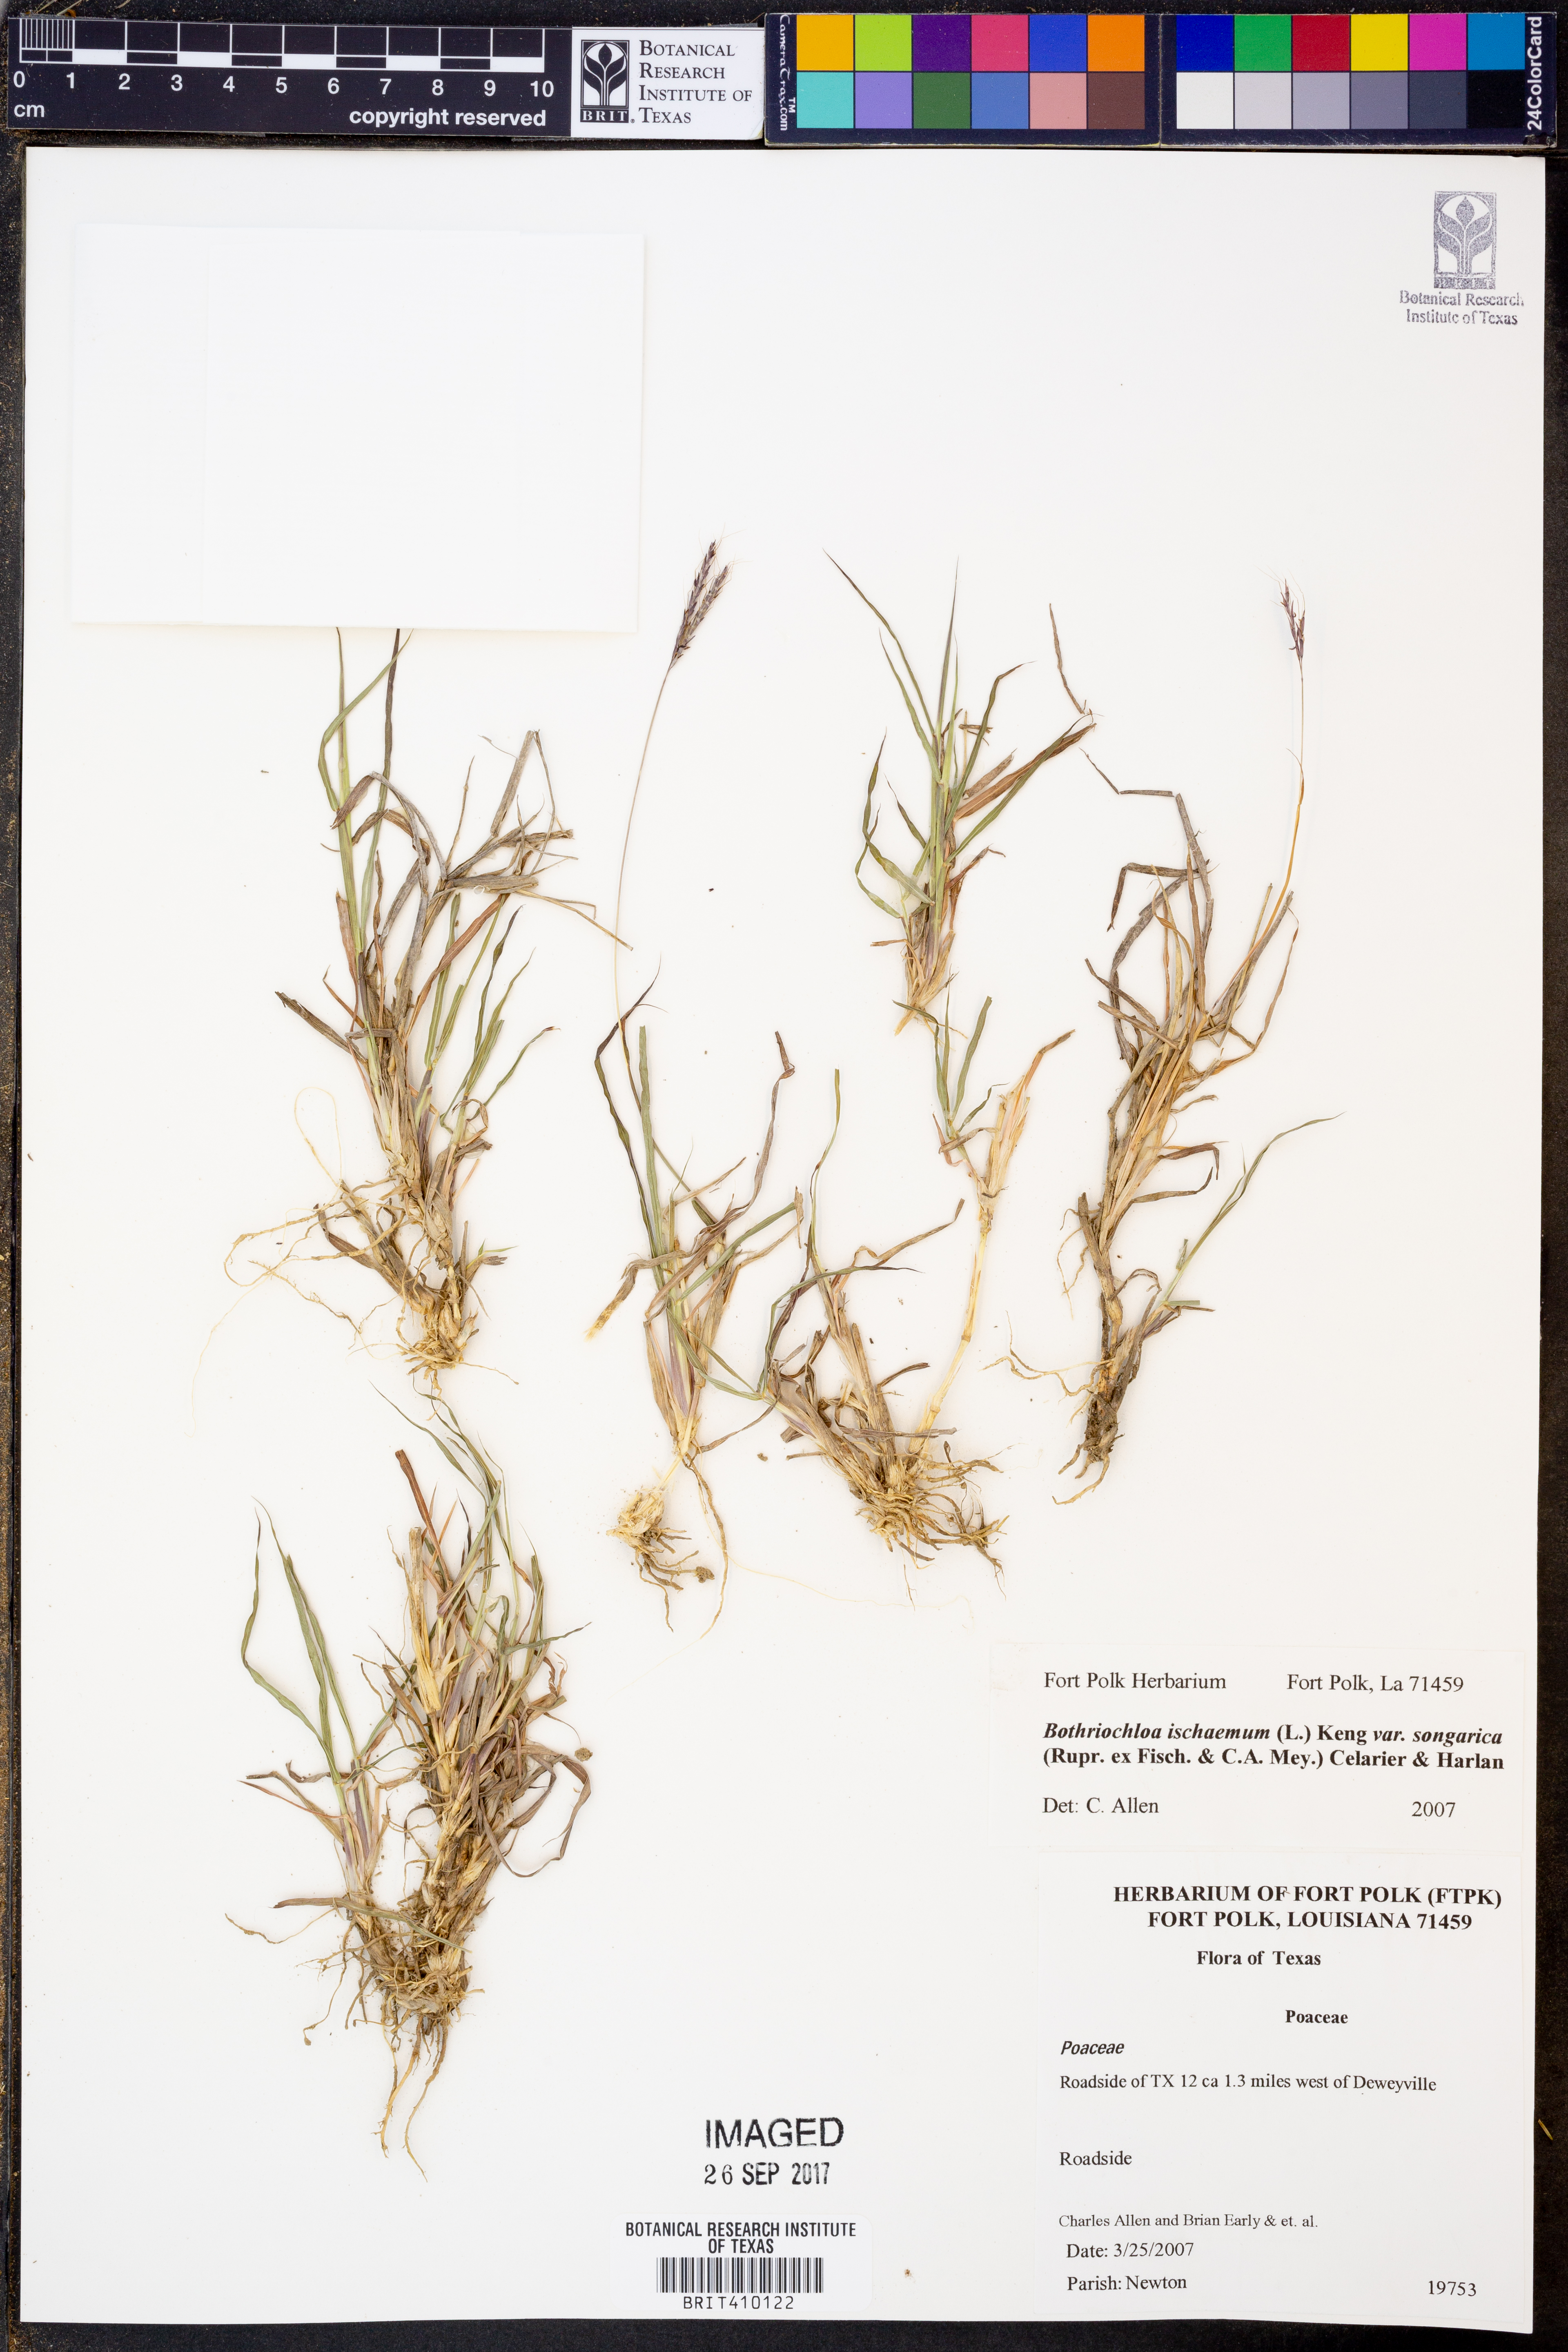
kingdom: Plantae
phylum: Tracheophyta
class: Liliopsida
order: Poales
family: Poaceae
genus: Bothriochloa
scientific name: Bothriochloa ischaemum
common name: Yellow bluestem
